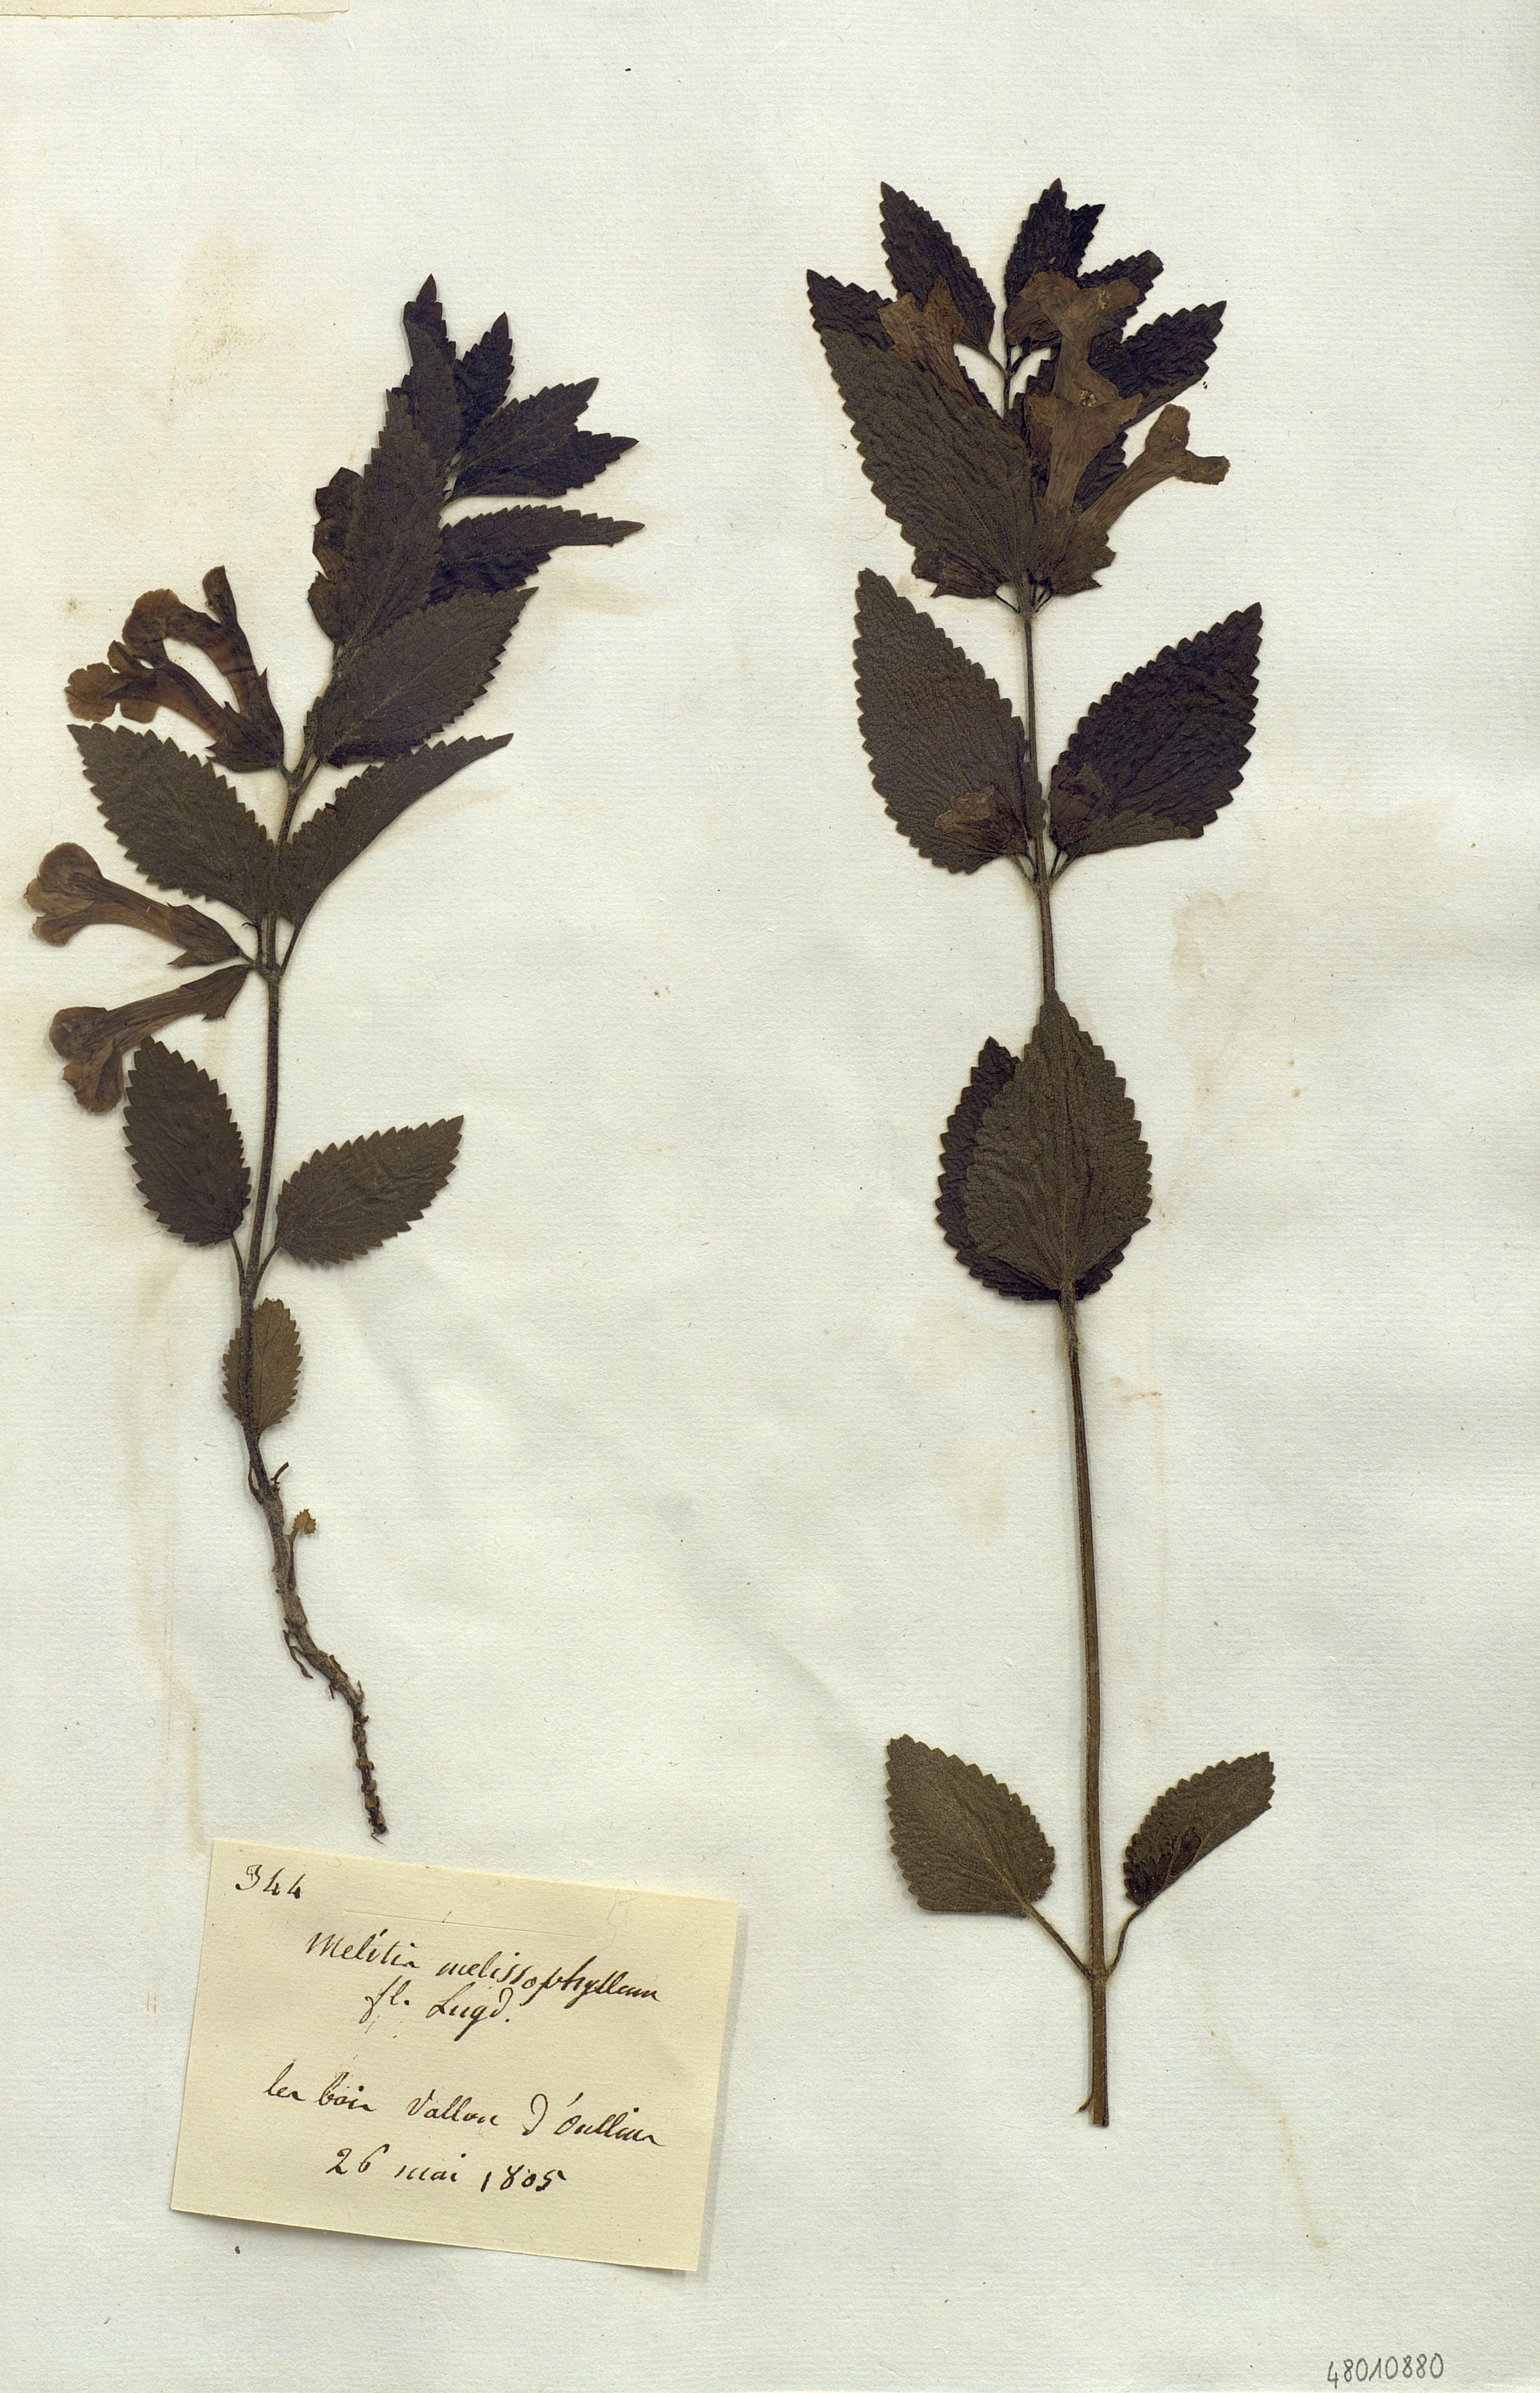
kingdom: Plantae
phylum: Tracheophyta
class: Magnoliopsida
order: Lamiales
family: Lamiaceae
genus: Melittis
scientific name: Melittis melissophyllum
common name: Bastard balm
